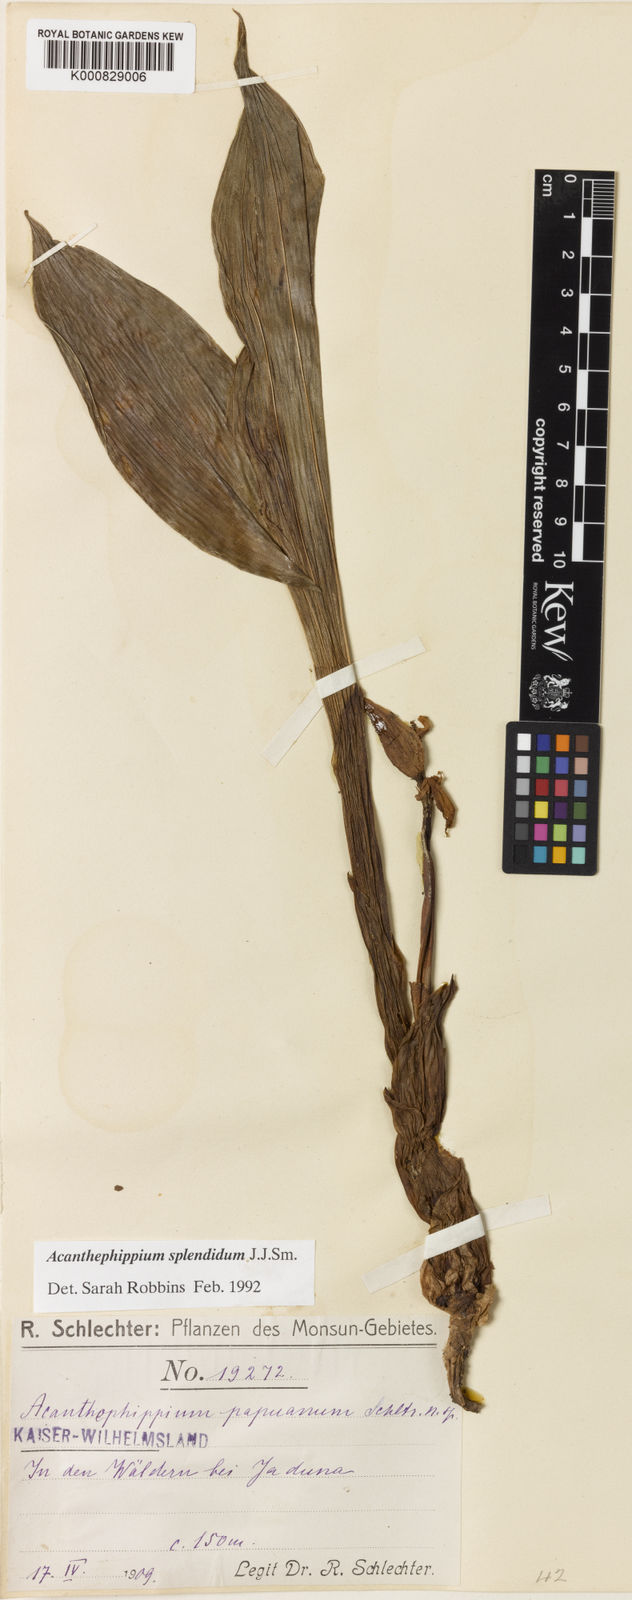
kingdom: Plantae
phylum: Tracheophyta
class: Liliopsida
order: Asparagales
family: Orchidaceae
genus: Acanthophippium
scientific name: Acanthophippium splendidum
